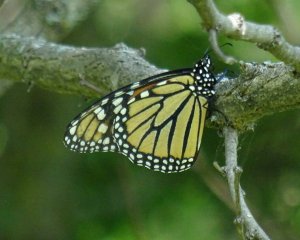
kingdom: Animalia
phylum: Arthropoda
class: Insecta
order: Lepidoptera
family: Nymphalidae
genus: Danaus
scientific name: Danaus plexippus
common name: Monarch
